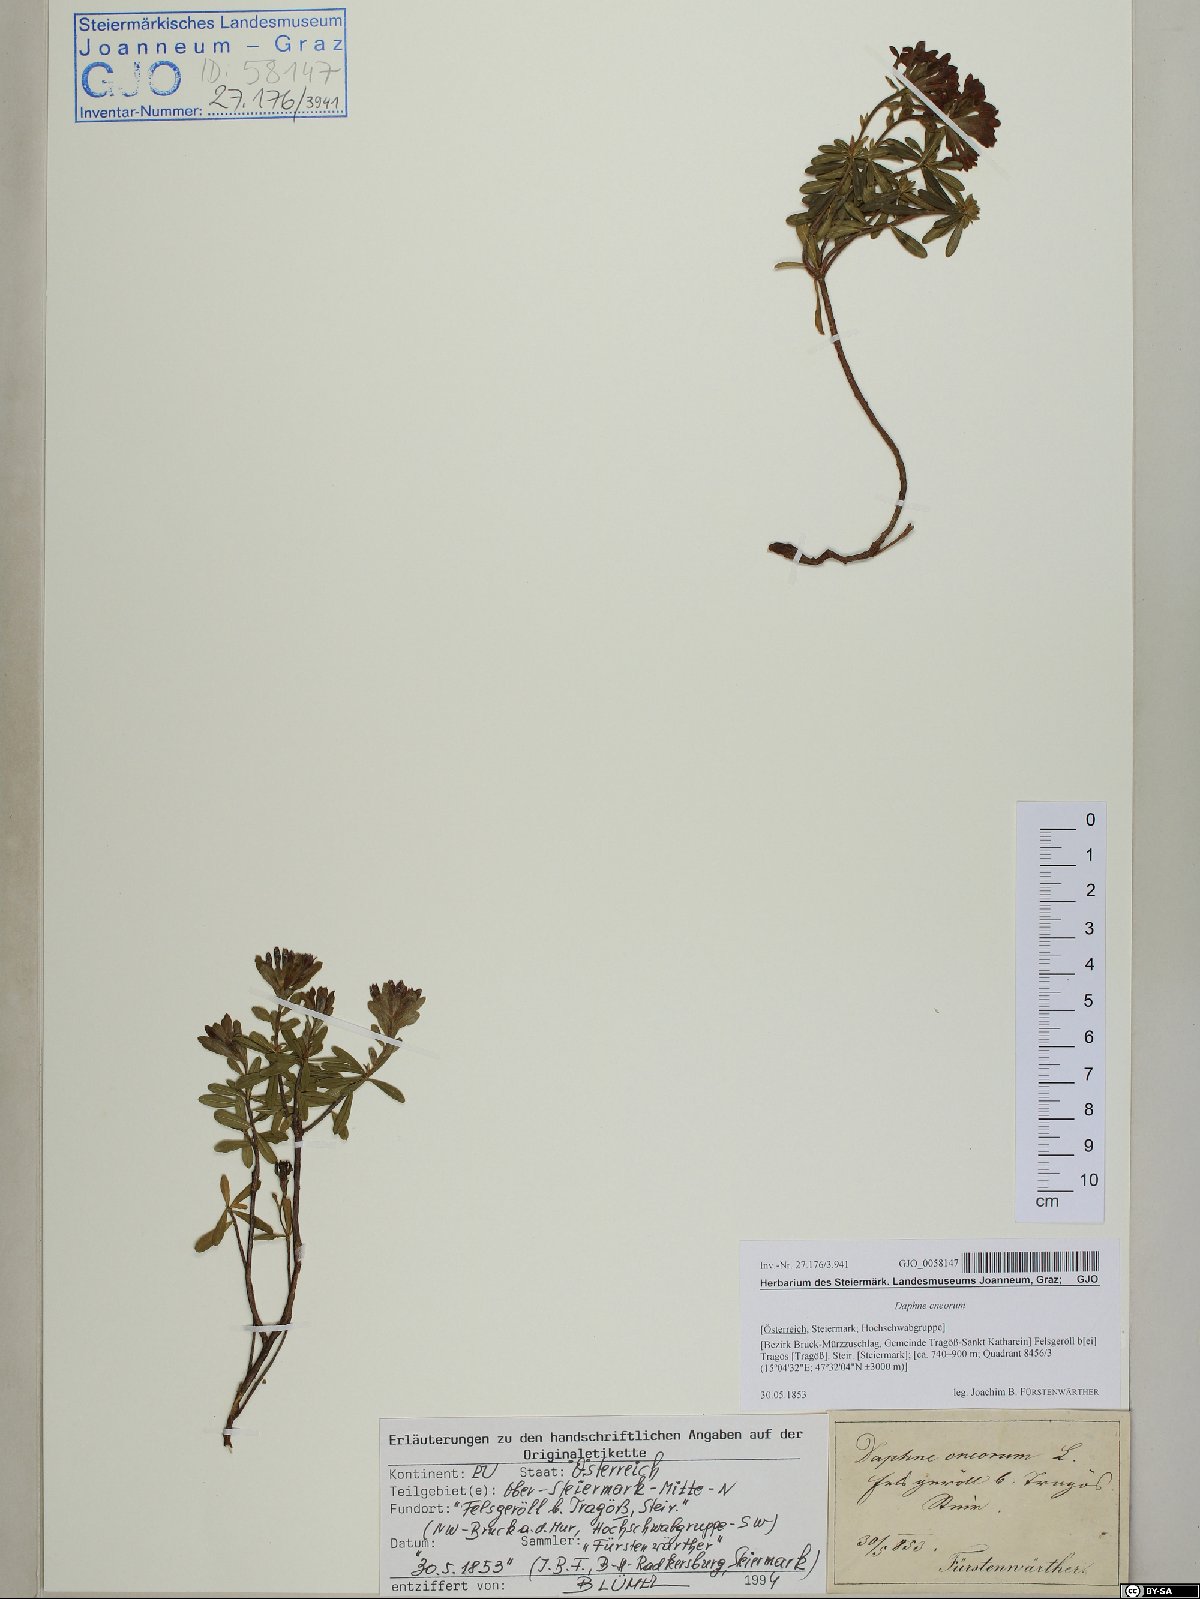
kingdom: Plantae
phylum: Tracheophyta
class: Magnoliopsida
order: Malvales
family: Thymelaeaceae
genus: Daphne
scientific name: Daphne cneorum
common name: Garland-flower
